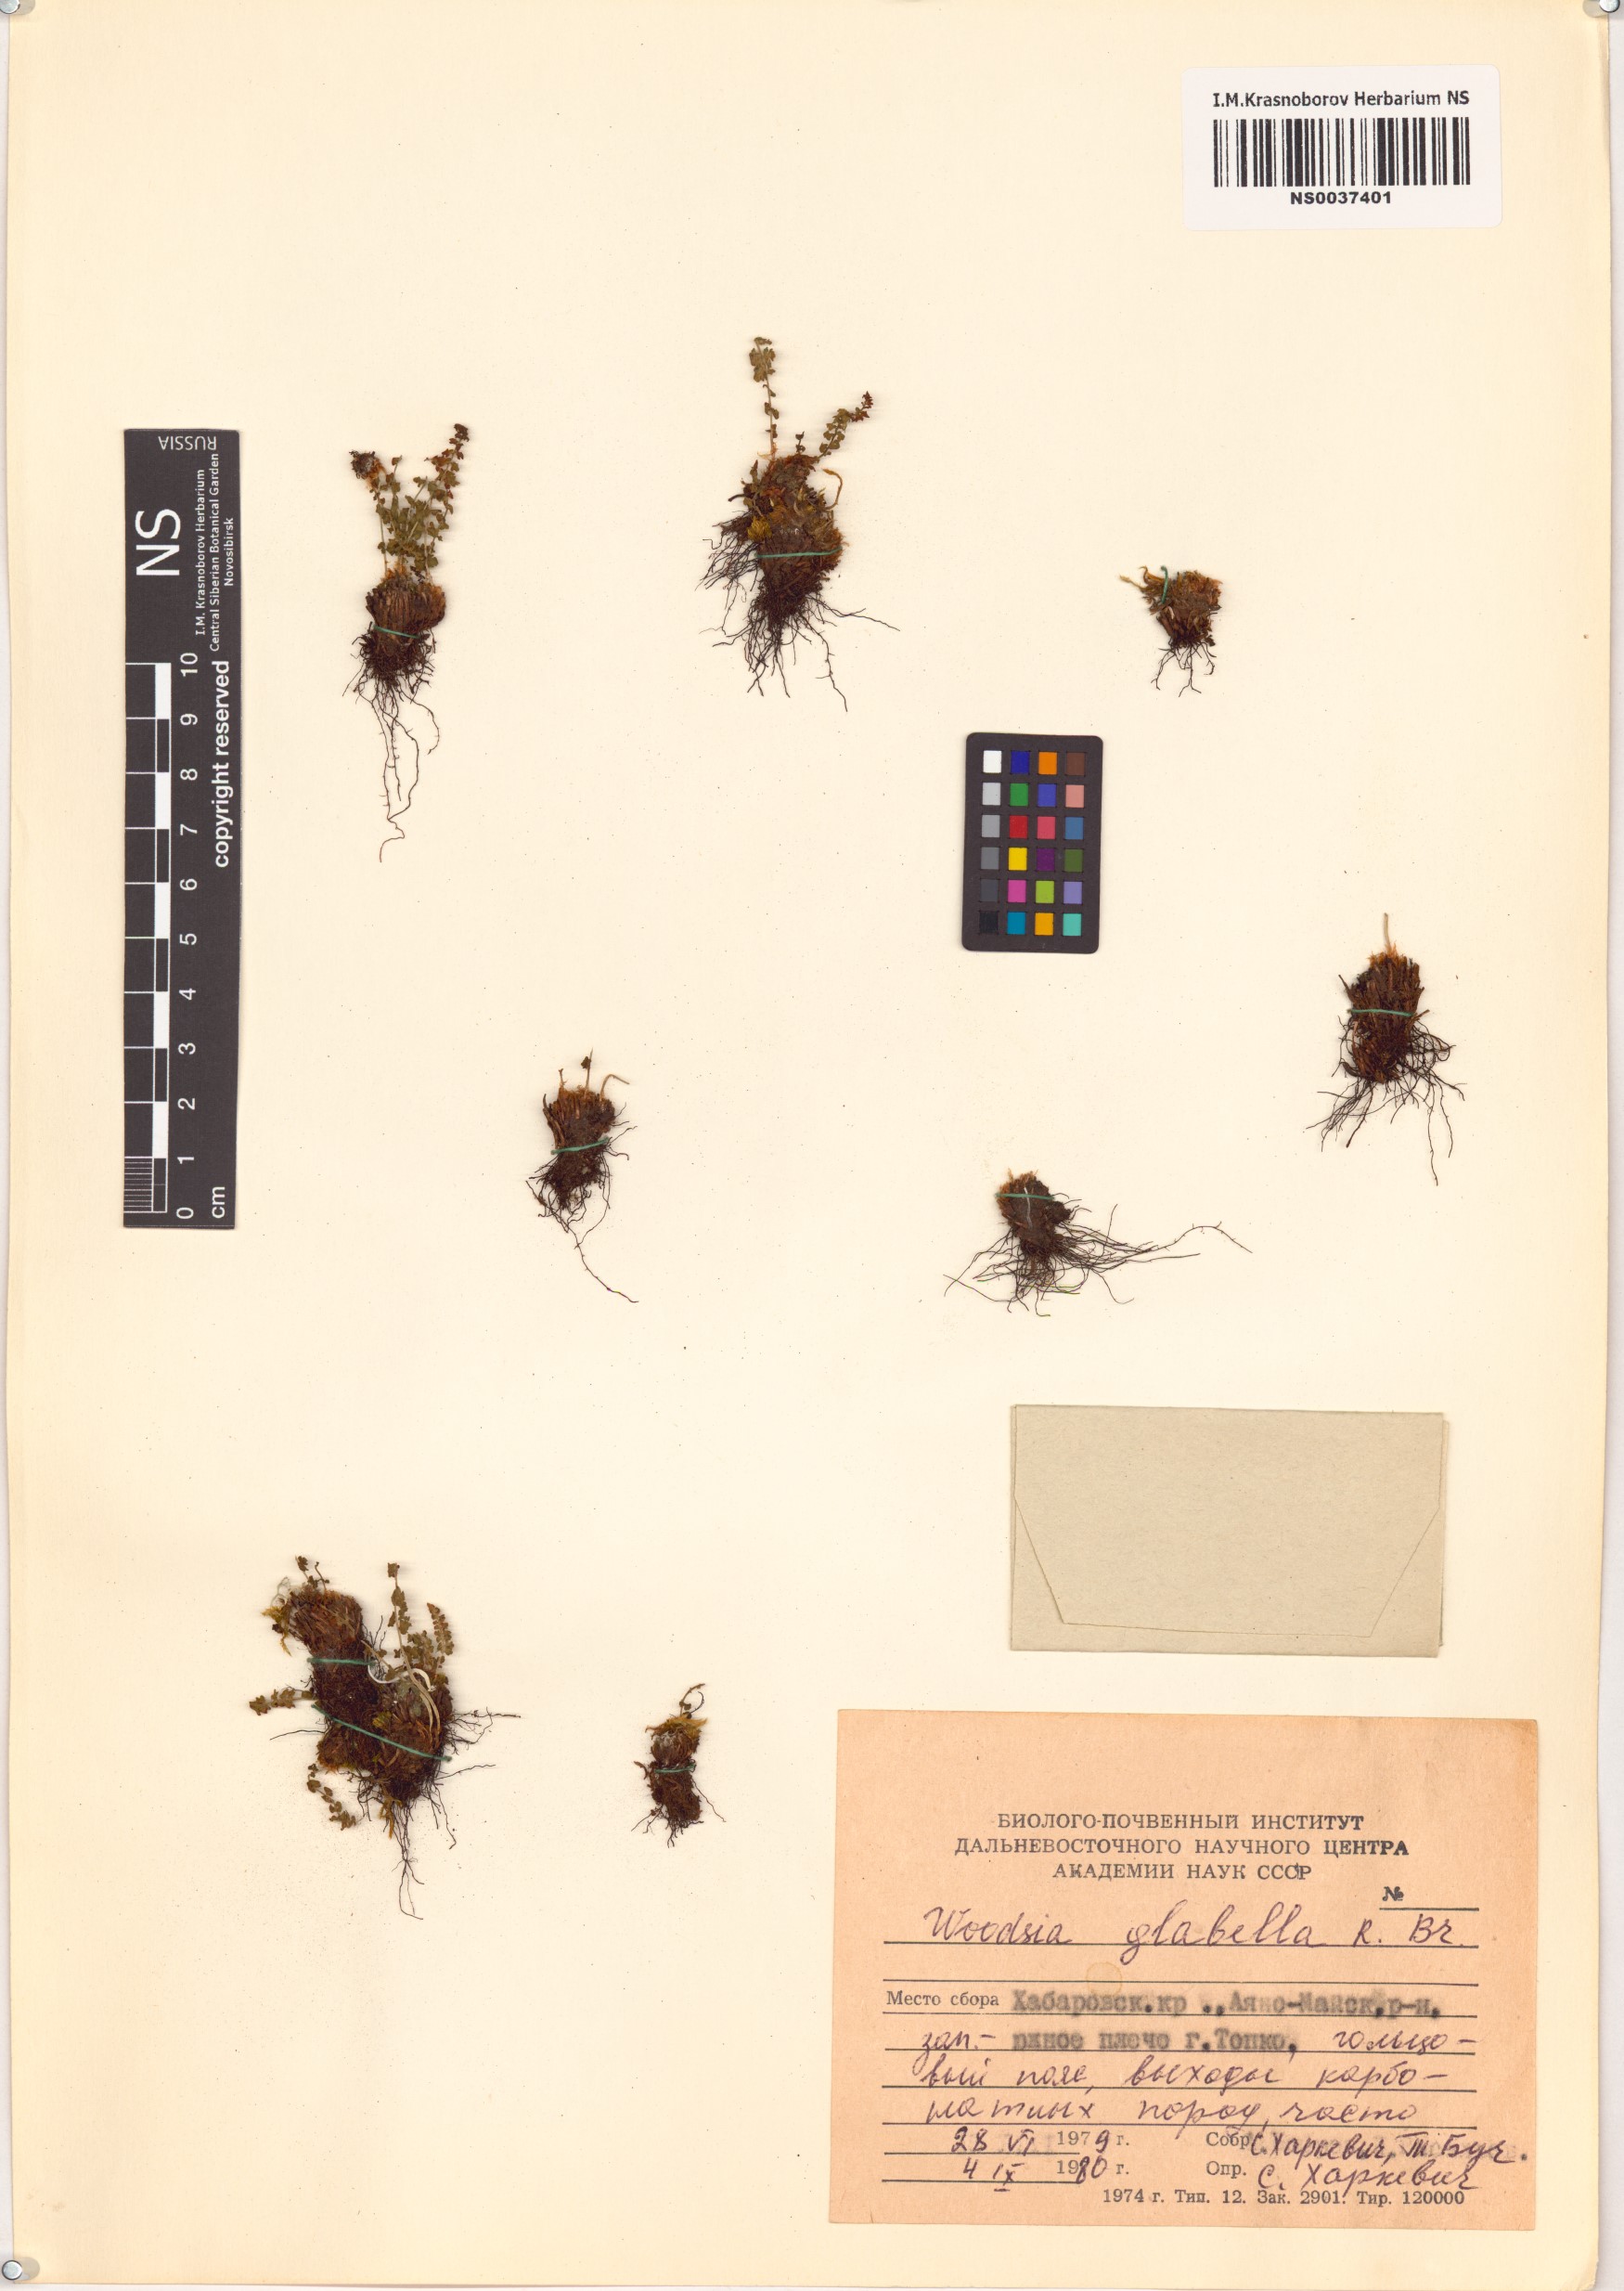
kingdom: Plantae
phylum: Tracheophyta
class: Polypodiopsida
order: Polypodiales
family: Woodsiaceae
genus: Woodsia
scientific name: Woodsia glabella
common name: Smooth woodsia
